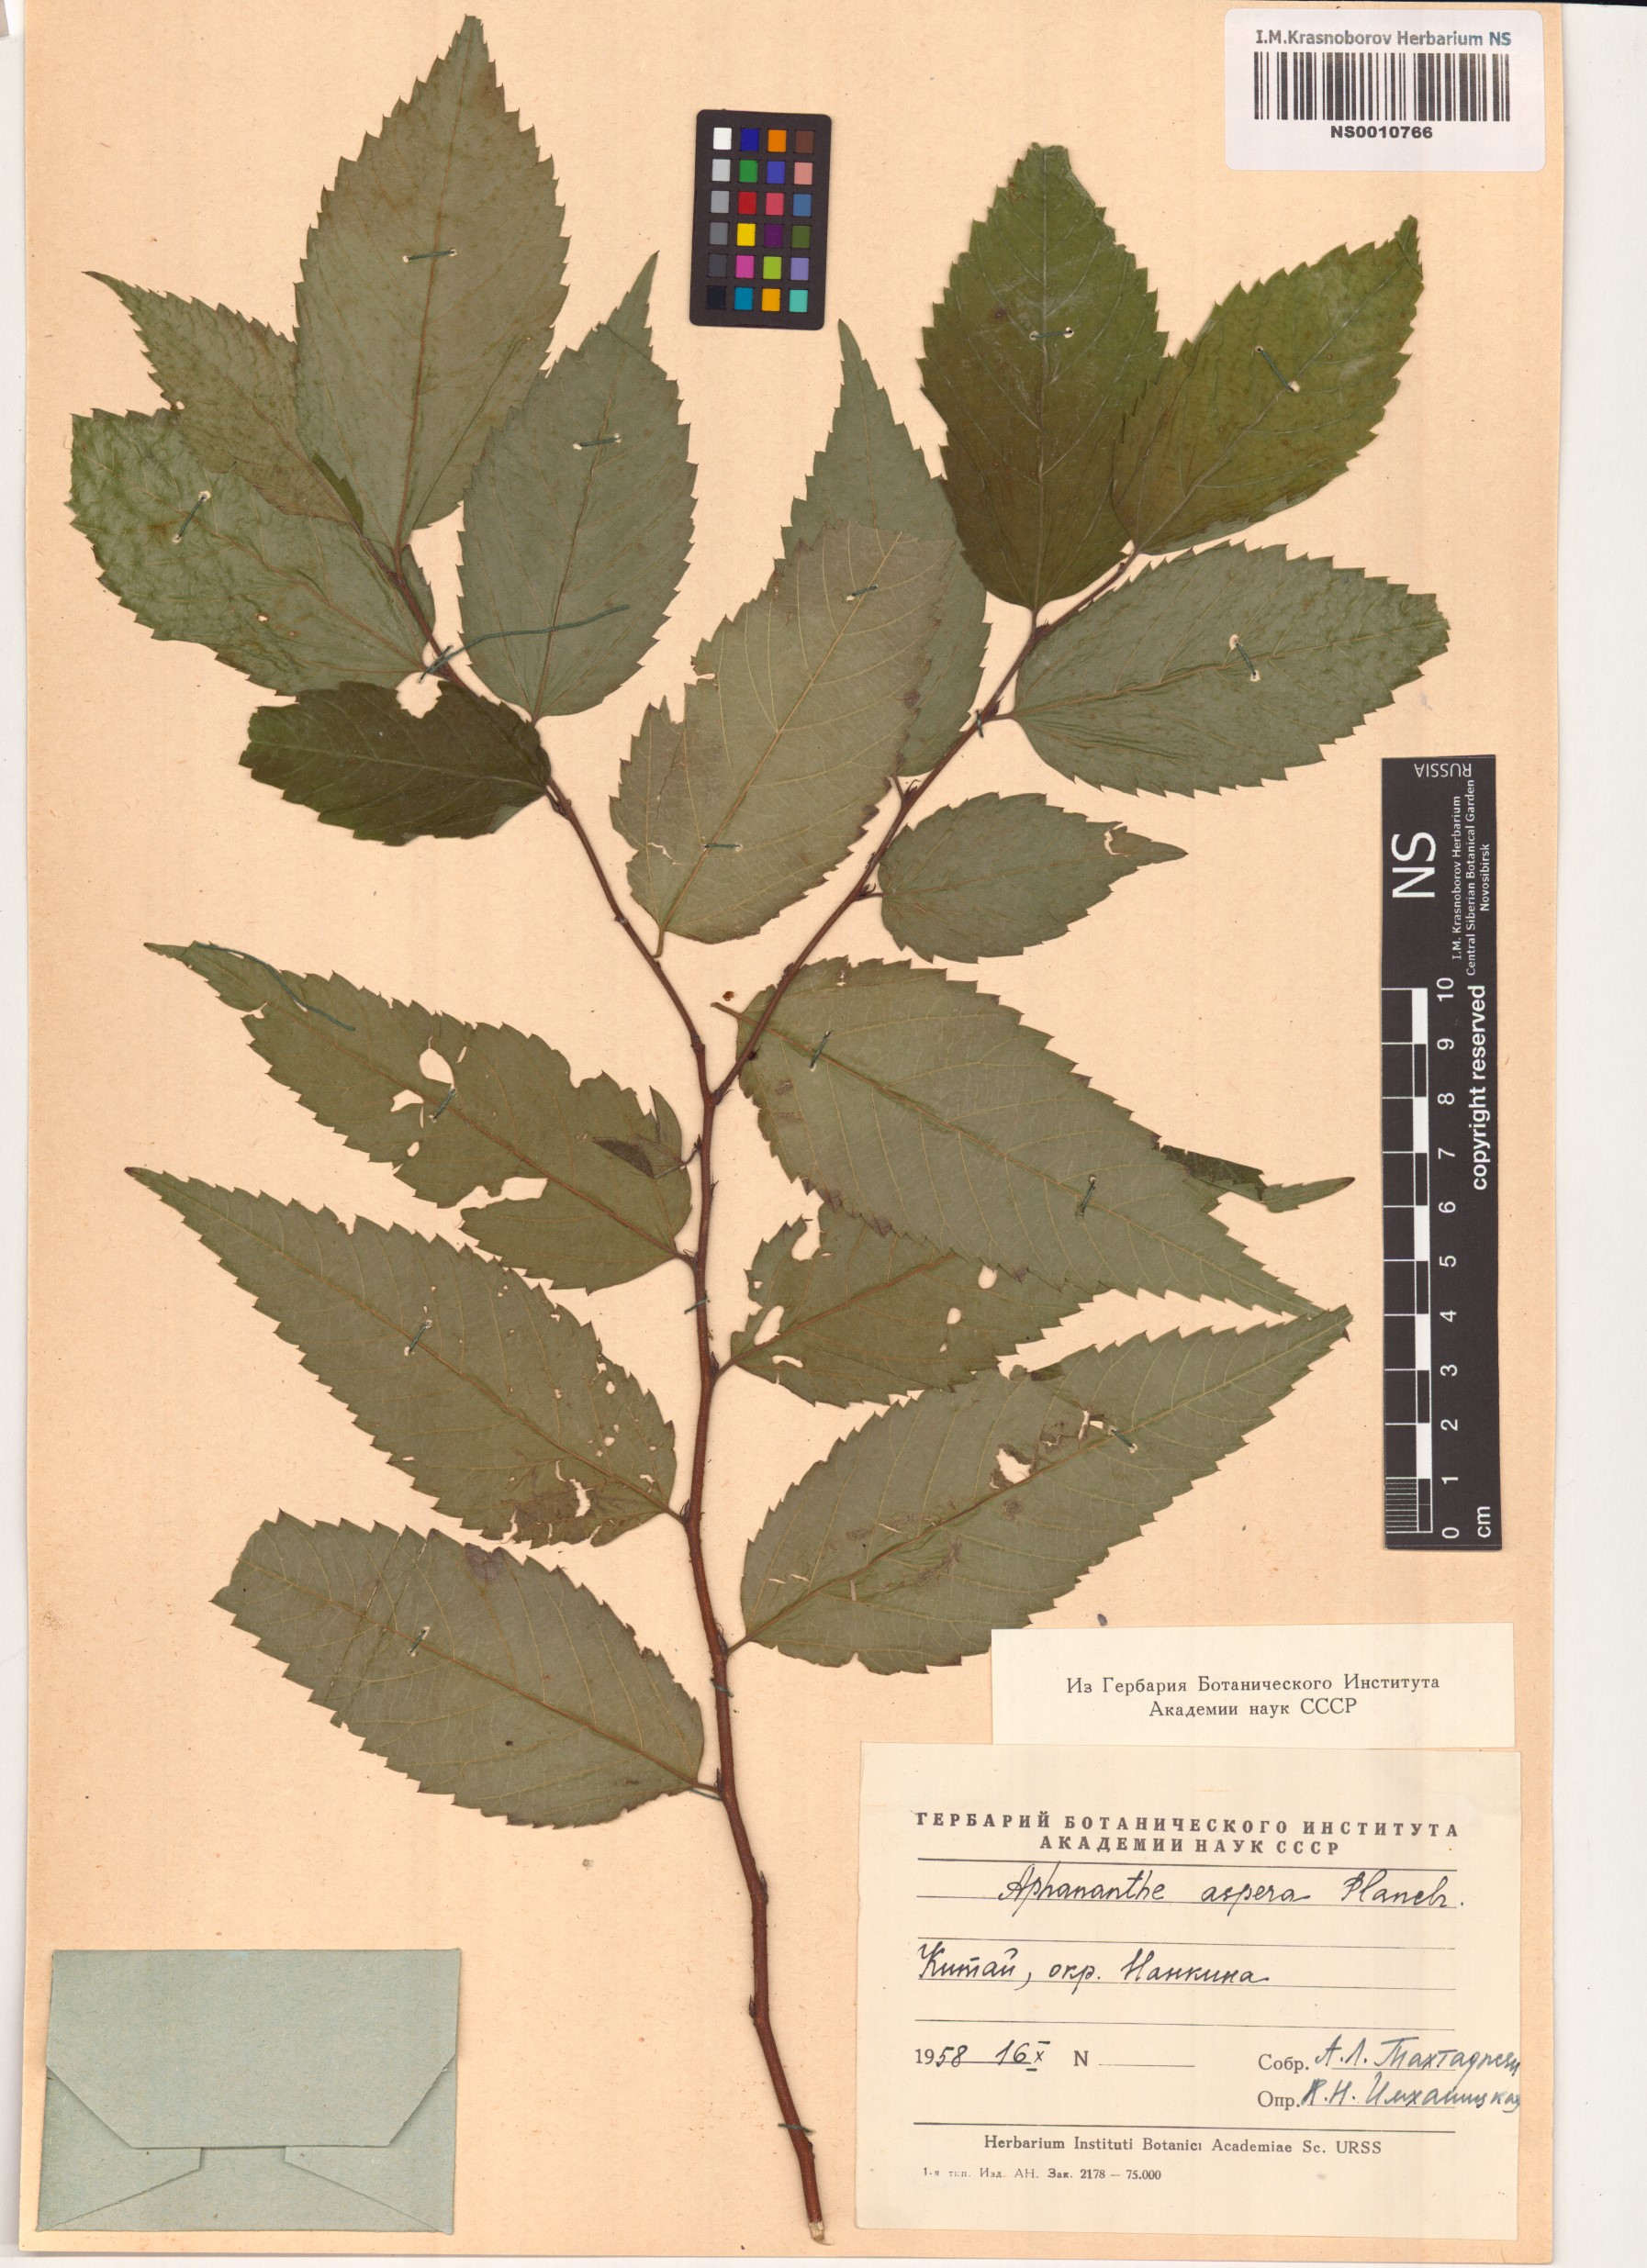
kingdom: Plantae
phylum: Tracheophyta
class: Magnoliopsida
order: Rosales
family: Cannabaceae
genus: Aphananthe
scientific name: Aphananthe aspera
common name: Mukutree
